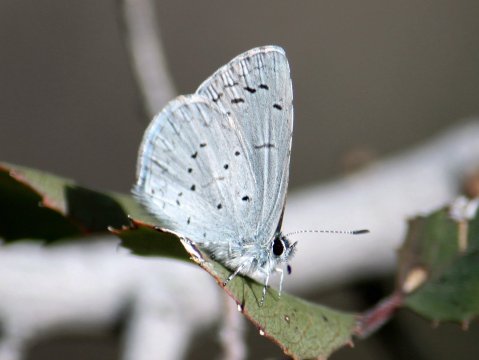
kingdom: Animalia
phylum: Arthropoda
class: Insecta
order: Lepidoptera
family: Lycaenidae
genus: Celastrina
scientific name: Celastrina ladon
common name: Echo Azure
